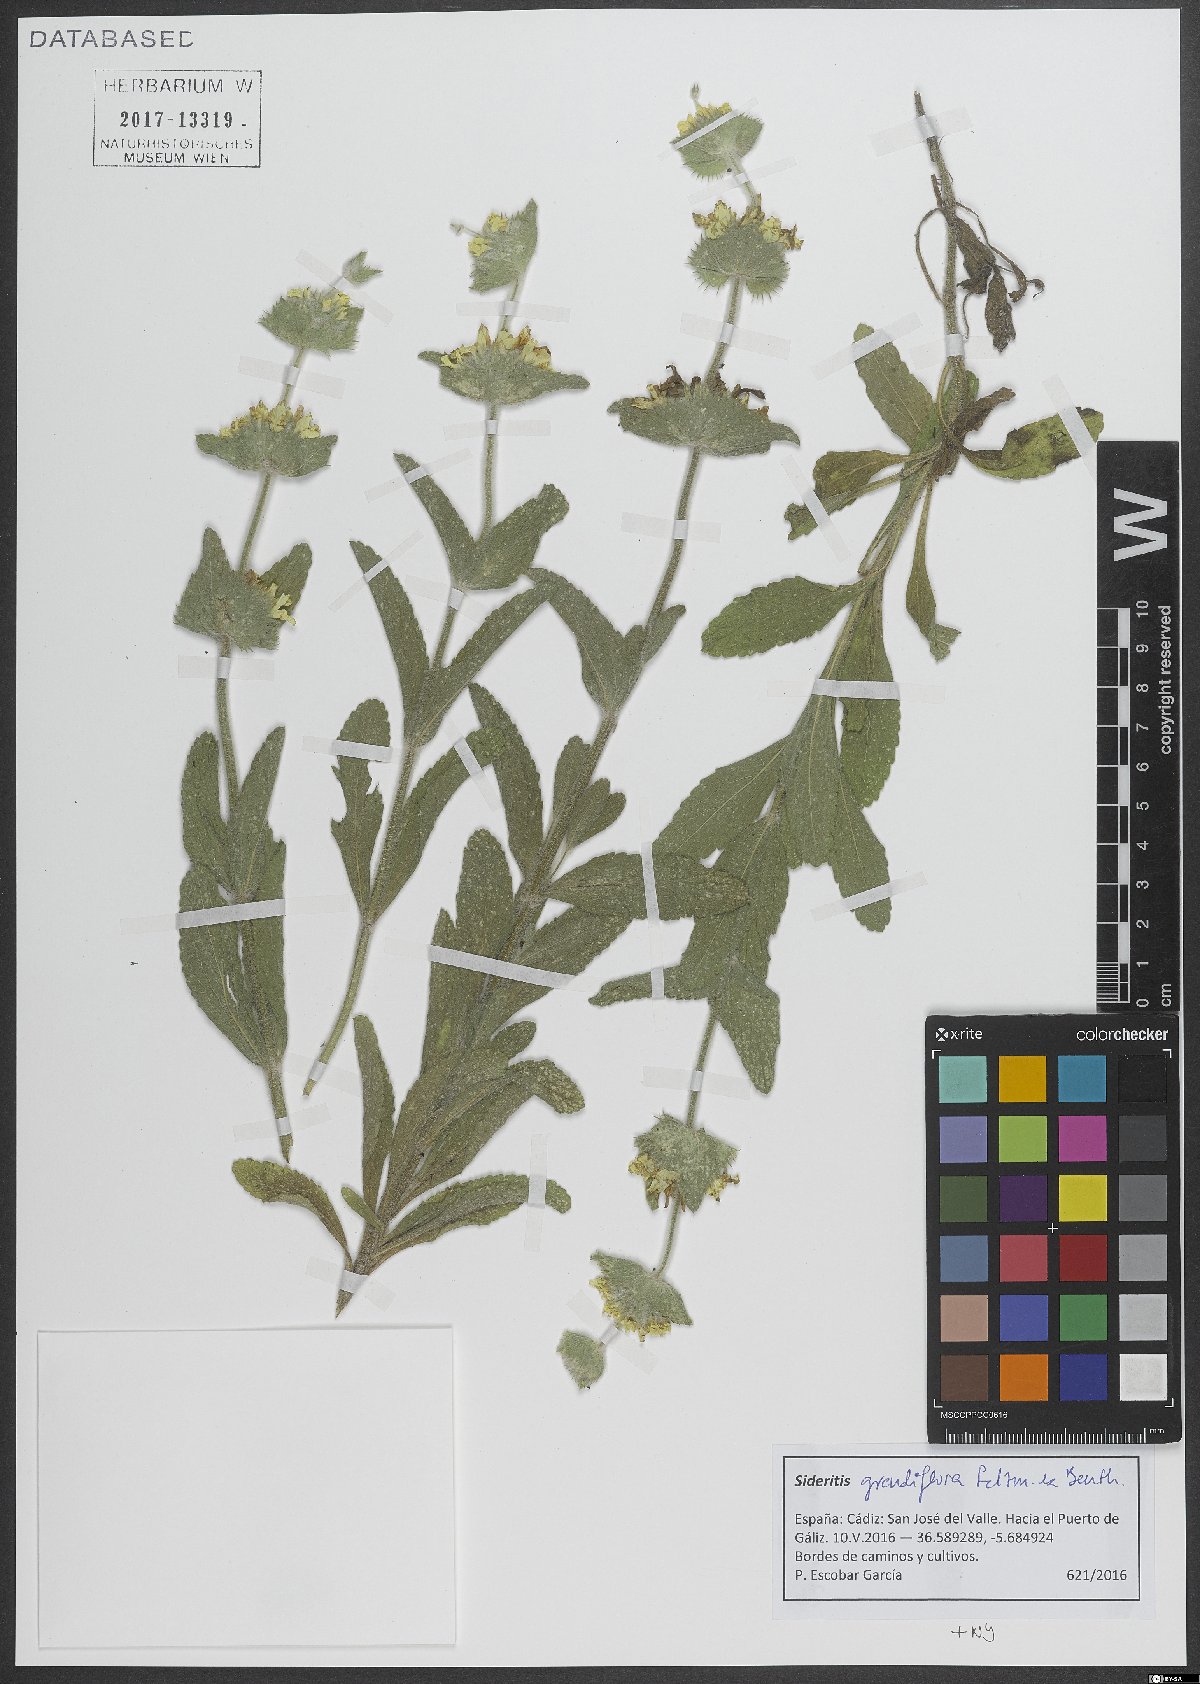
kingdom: Plantae
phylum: Tracheophyta
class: Magnoliopsida
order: Lamiales
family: Lamiaceae
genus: Sideritis
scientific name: Sideritis grandiflora
